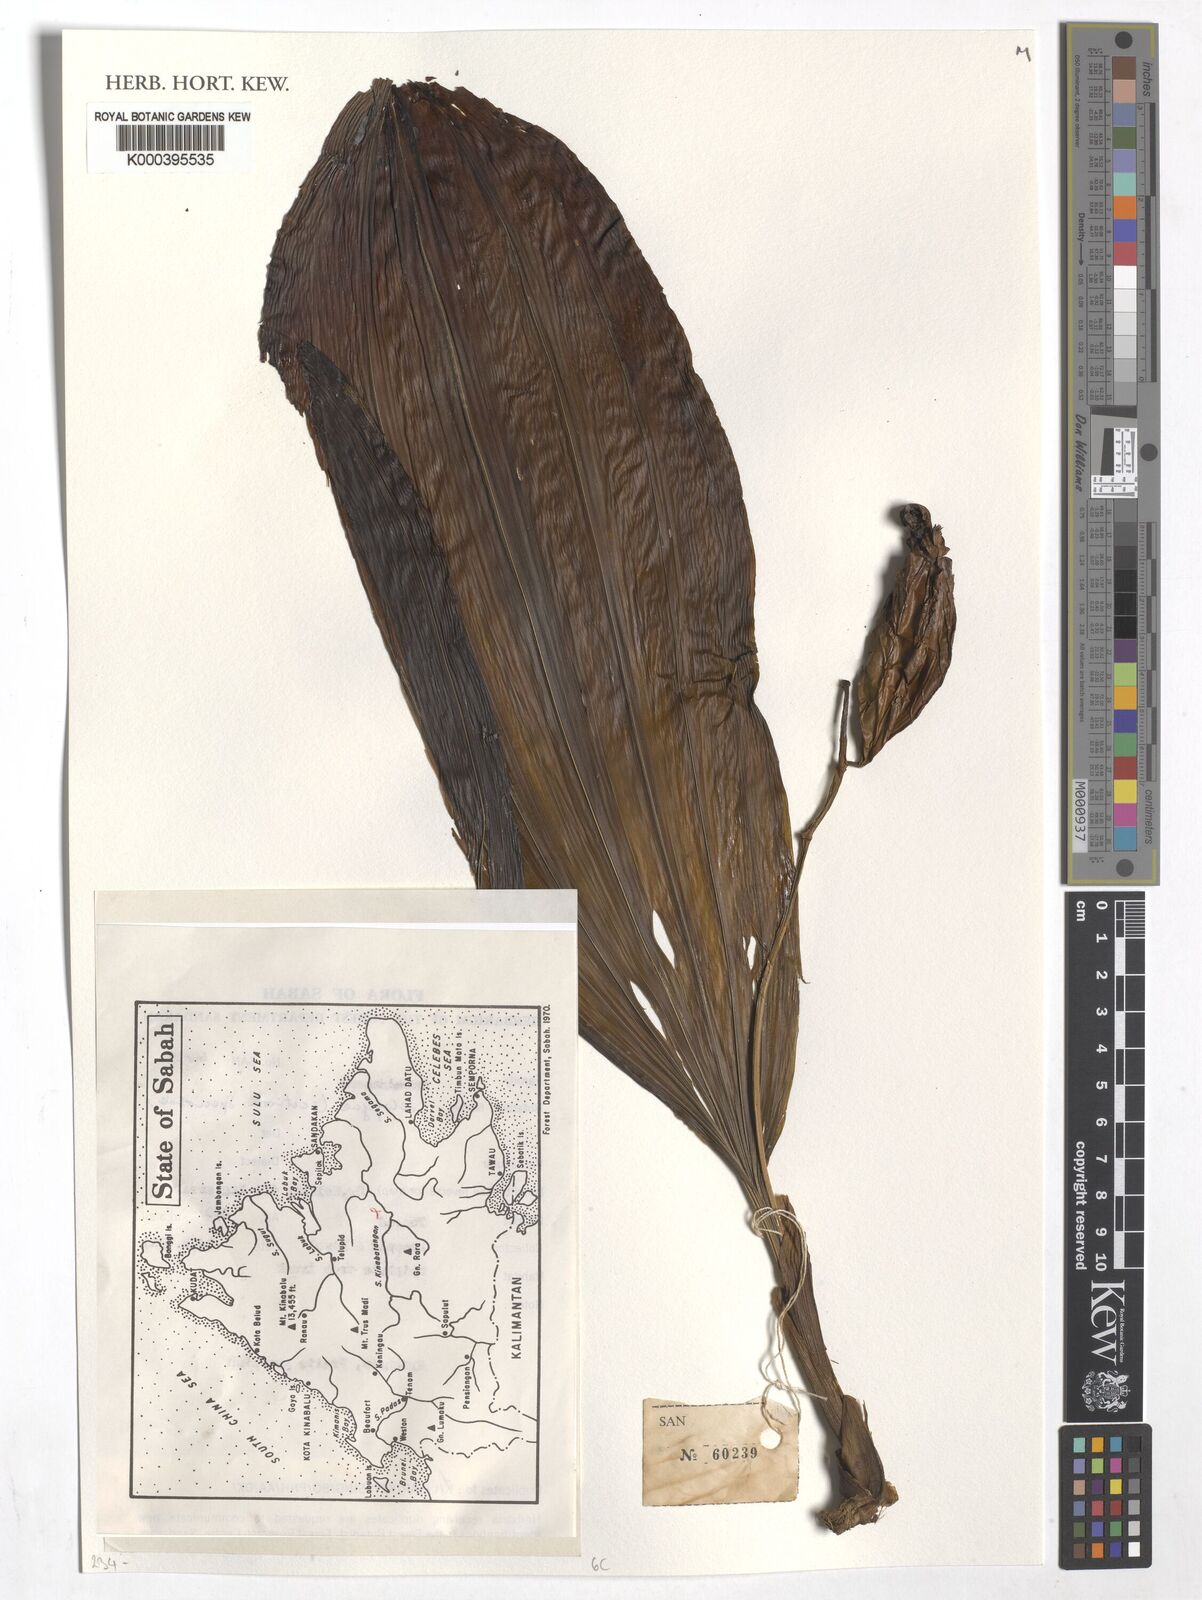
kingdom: Plantae
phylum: Tracheophyta
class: Liliopsida
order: Asparagales
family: Orchidaceae
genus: Coelogyne
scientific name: Coelogyne
